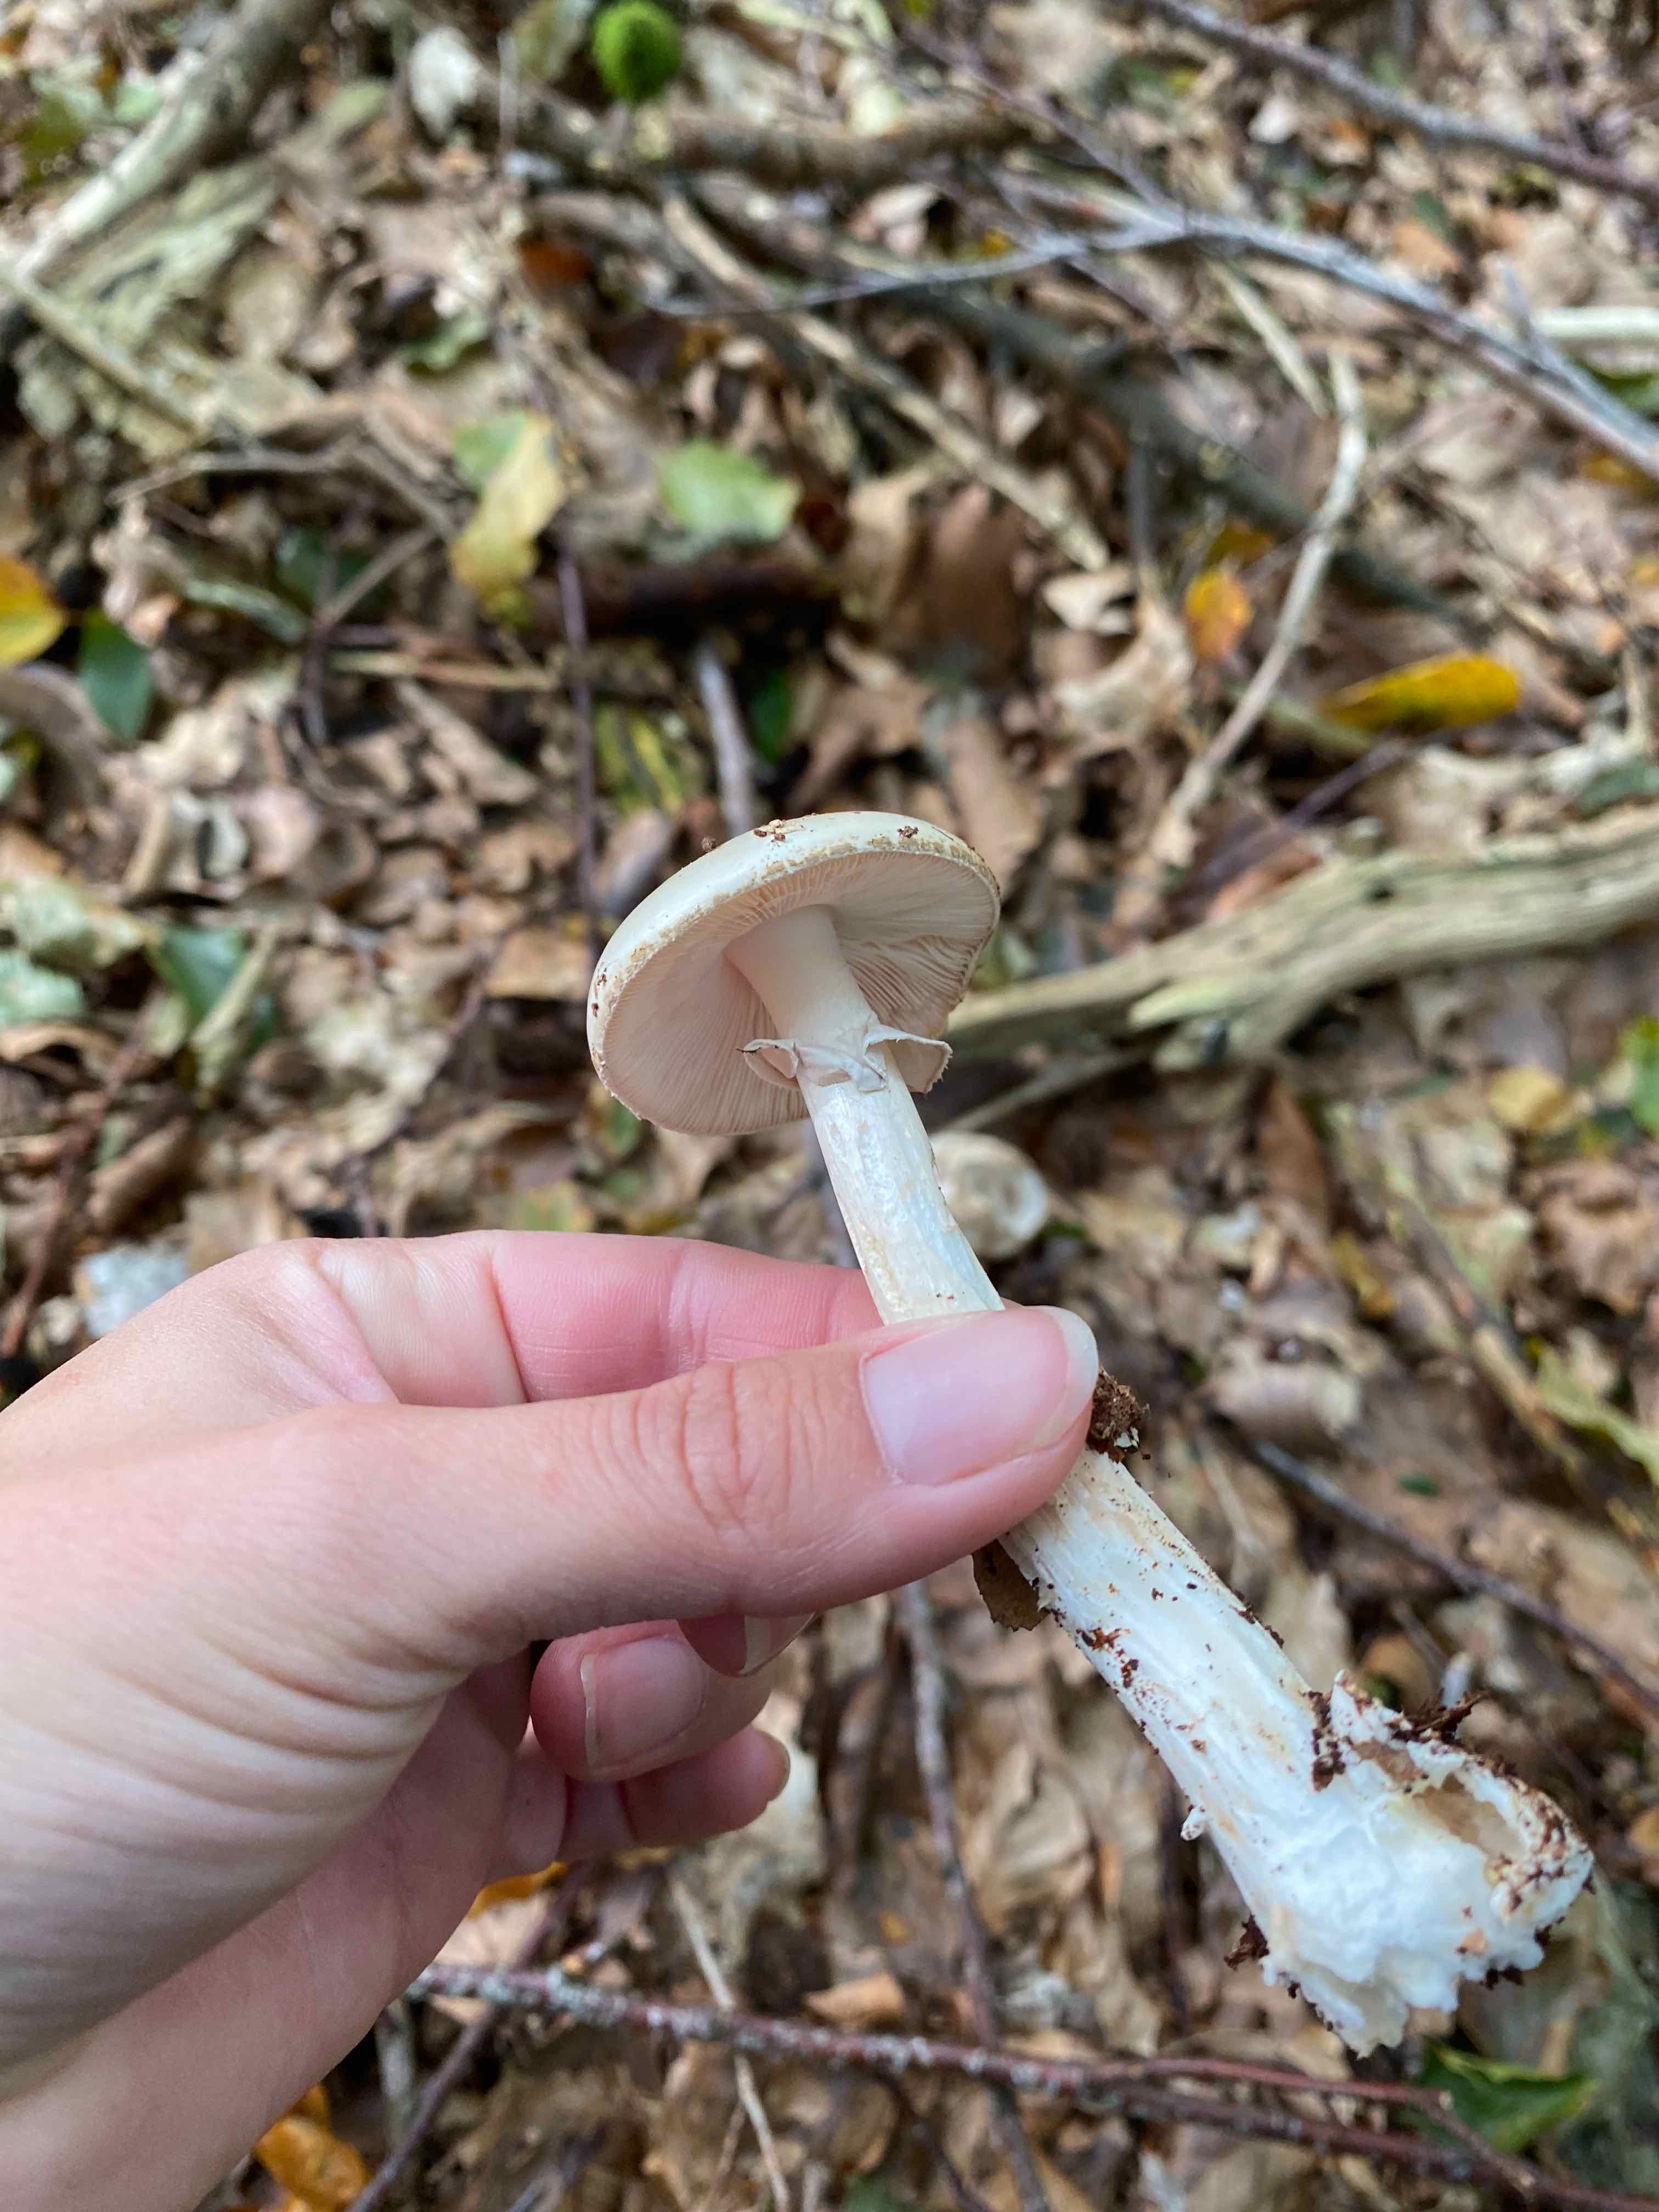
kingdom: Fungi
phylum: Basidiomycota
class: Agaricomycetes
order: Agaricales
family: Amanitaceae
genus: Amanita
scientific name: Amanita citrina
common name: kugleknoldet fluesvamp
